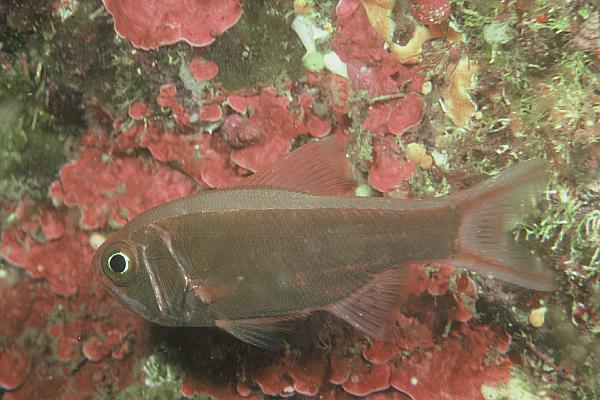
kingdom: Animalia
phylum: Chordata
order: Beryciformes
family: Trachichthyidae
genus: Optivus
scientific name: Optivus elongatus
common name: Slender roughy
